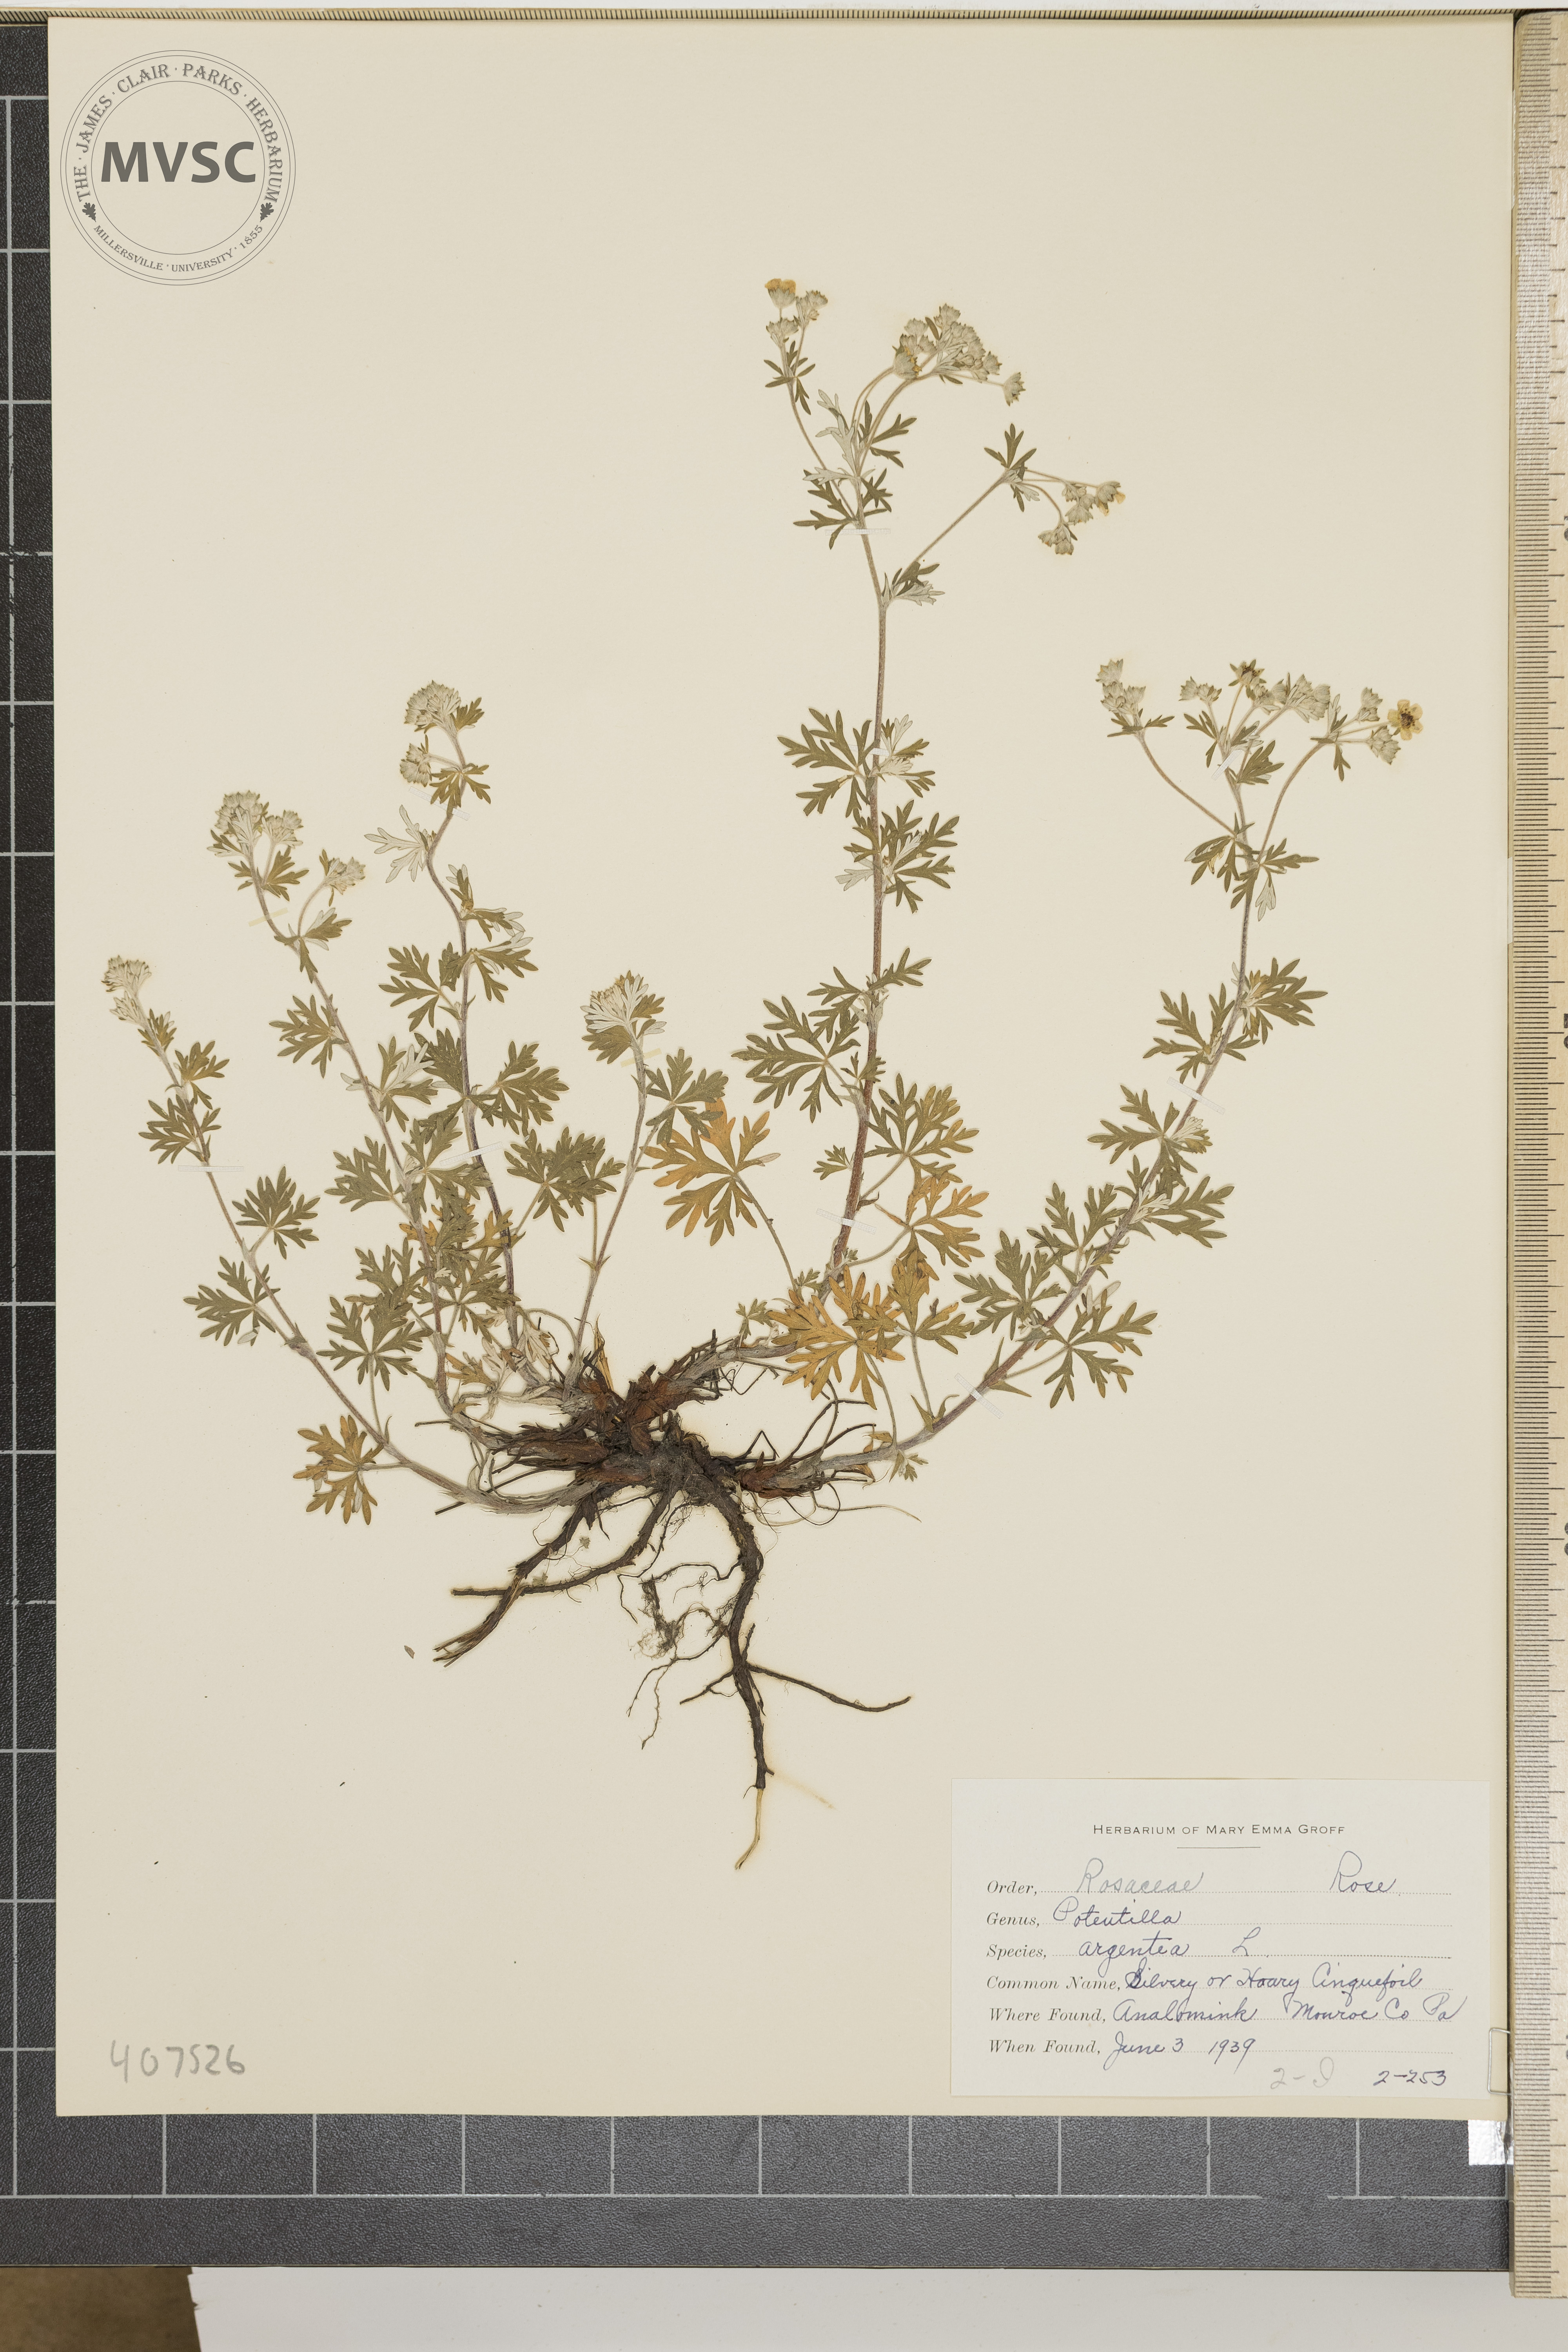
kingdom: Plantae
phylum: Tracheophyta
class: Magnoliopsida
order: Rosales
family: Rosaceae
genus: Potentilla
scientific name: Potentilla argentea
